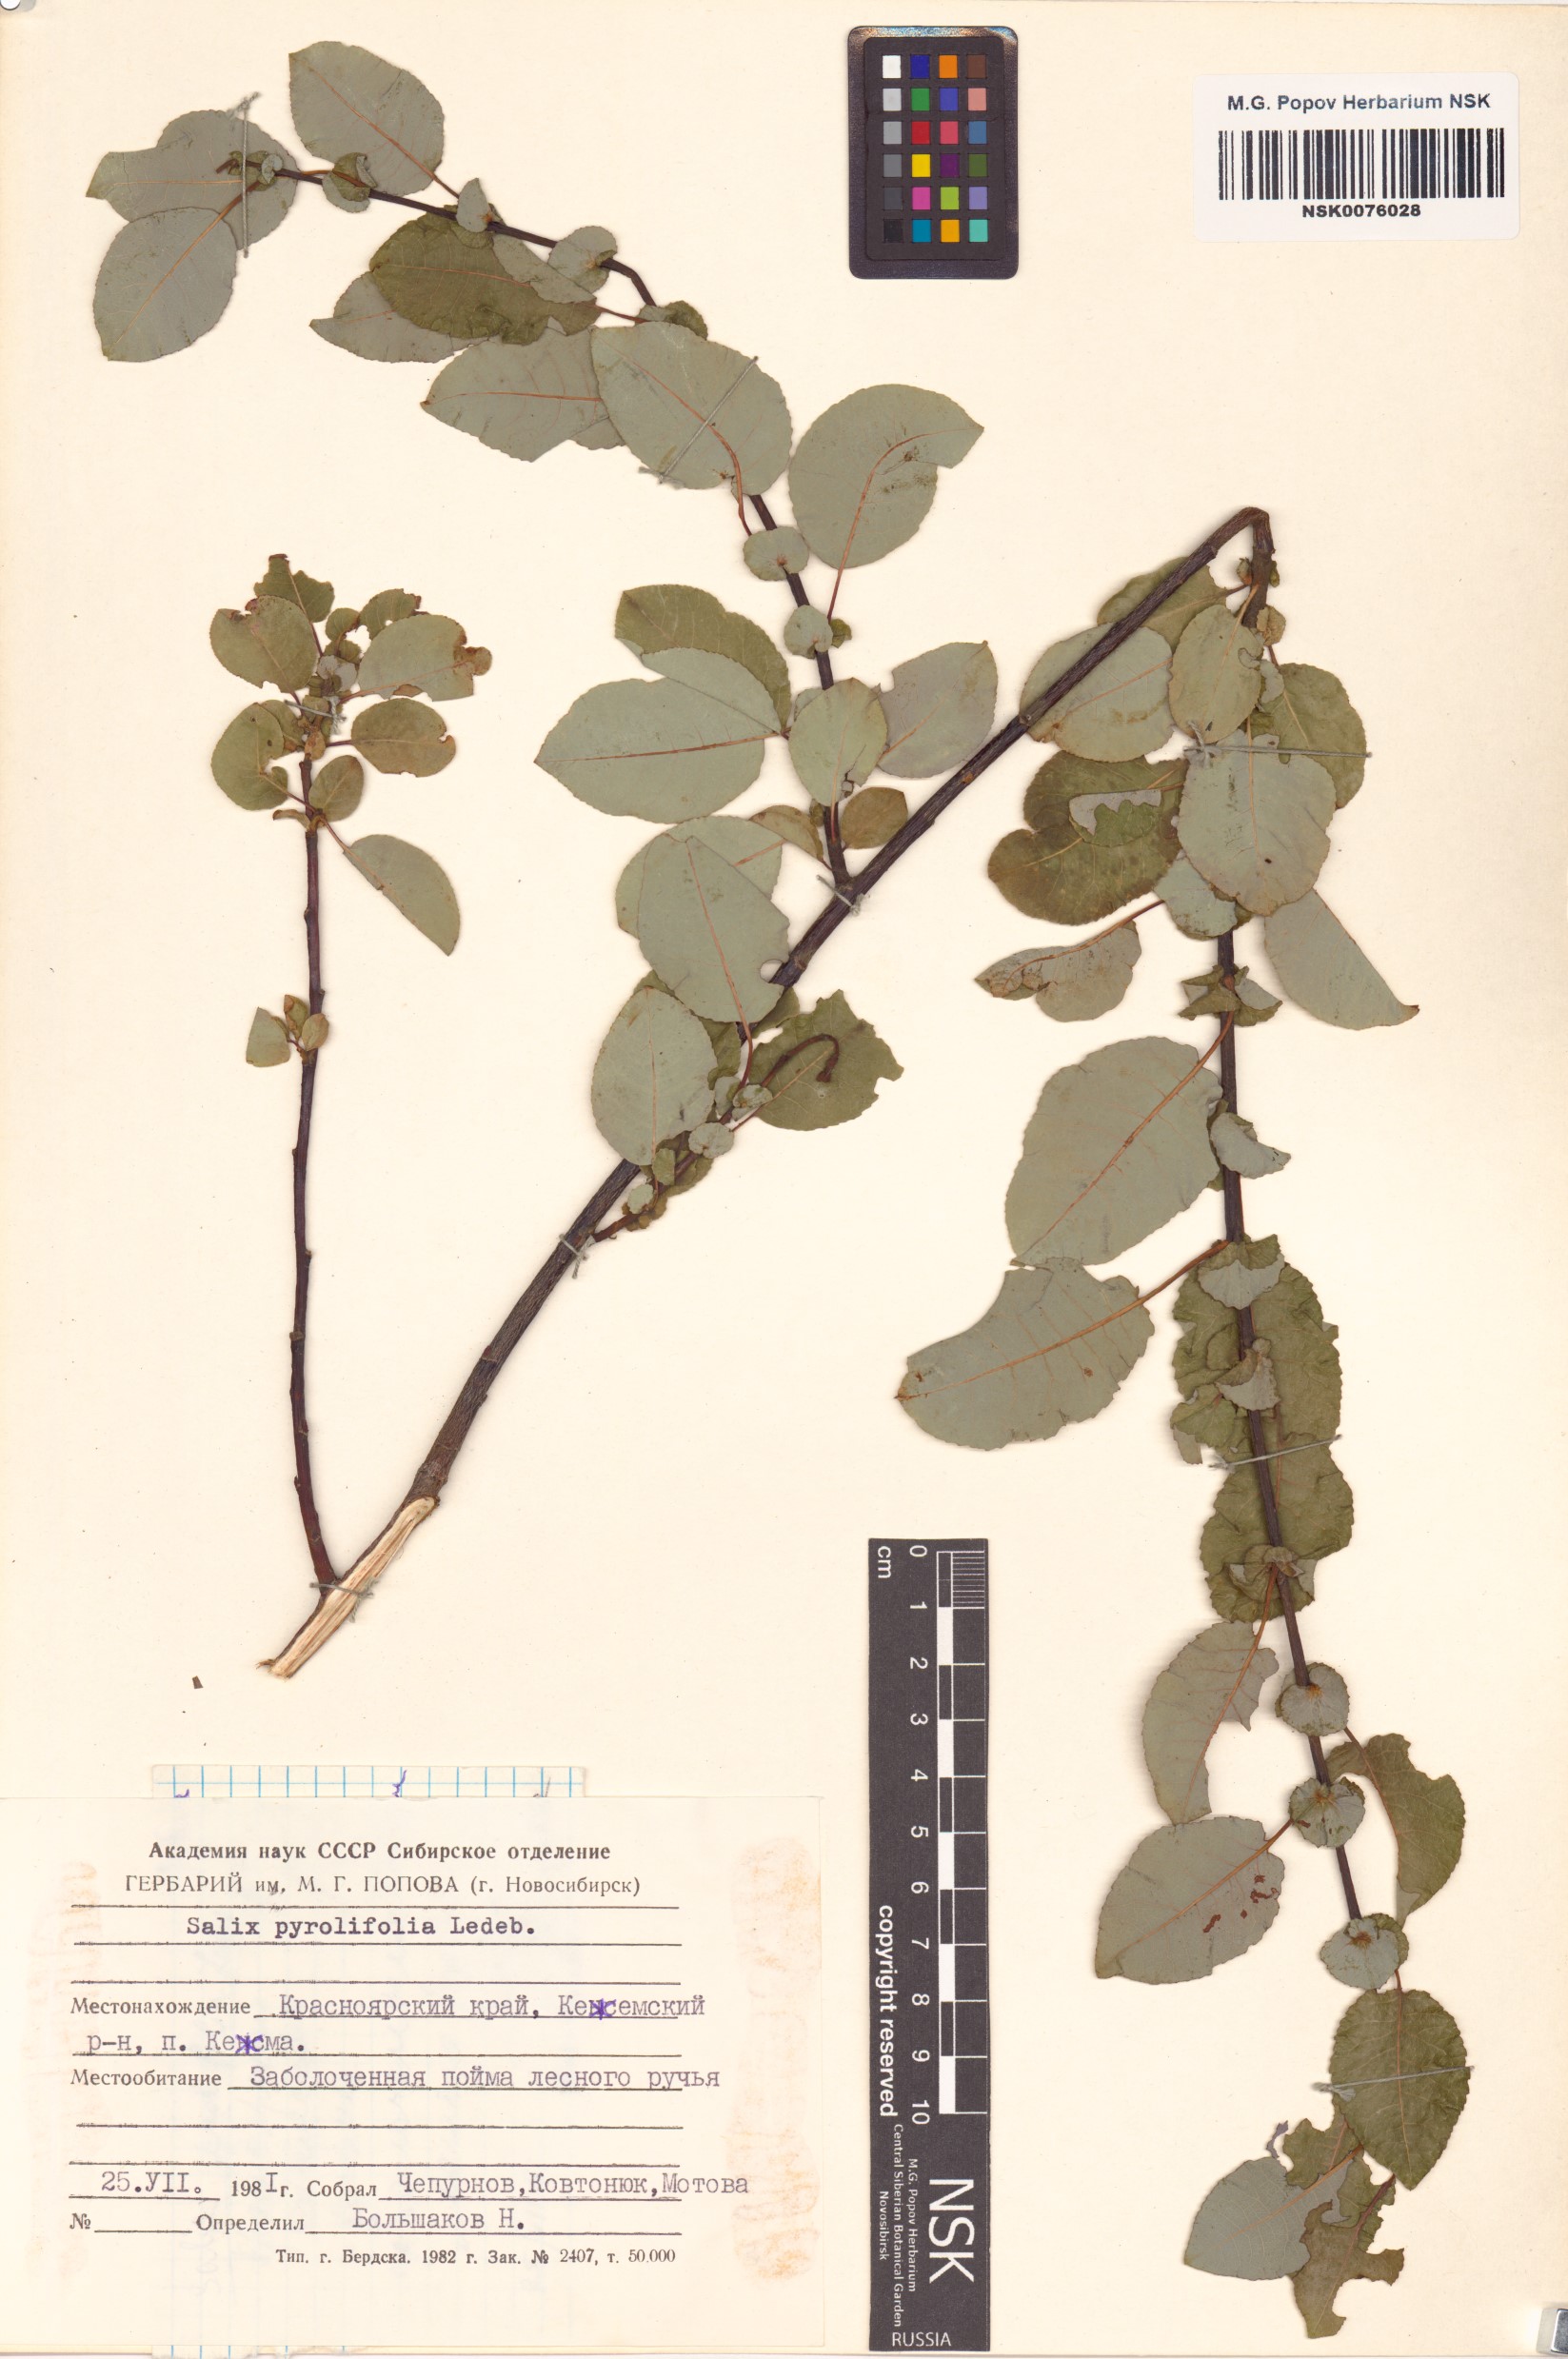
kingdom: Plantae
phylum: Tracheophyta
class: Magnoliopsida
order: Malpighiales
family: Salicaceae
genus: Salix
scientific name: Salix pyrolifolia
